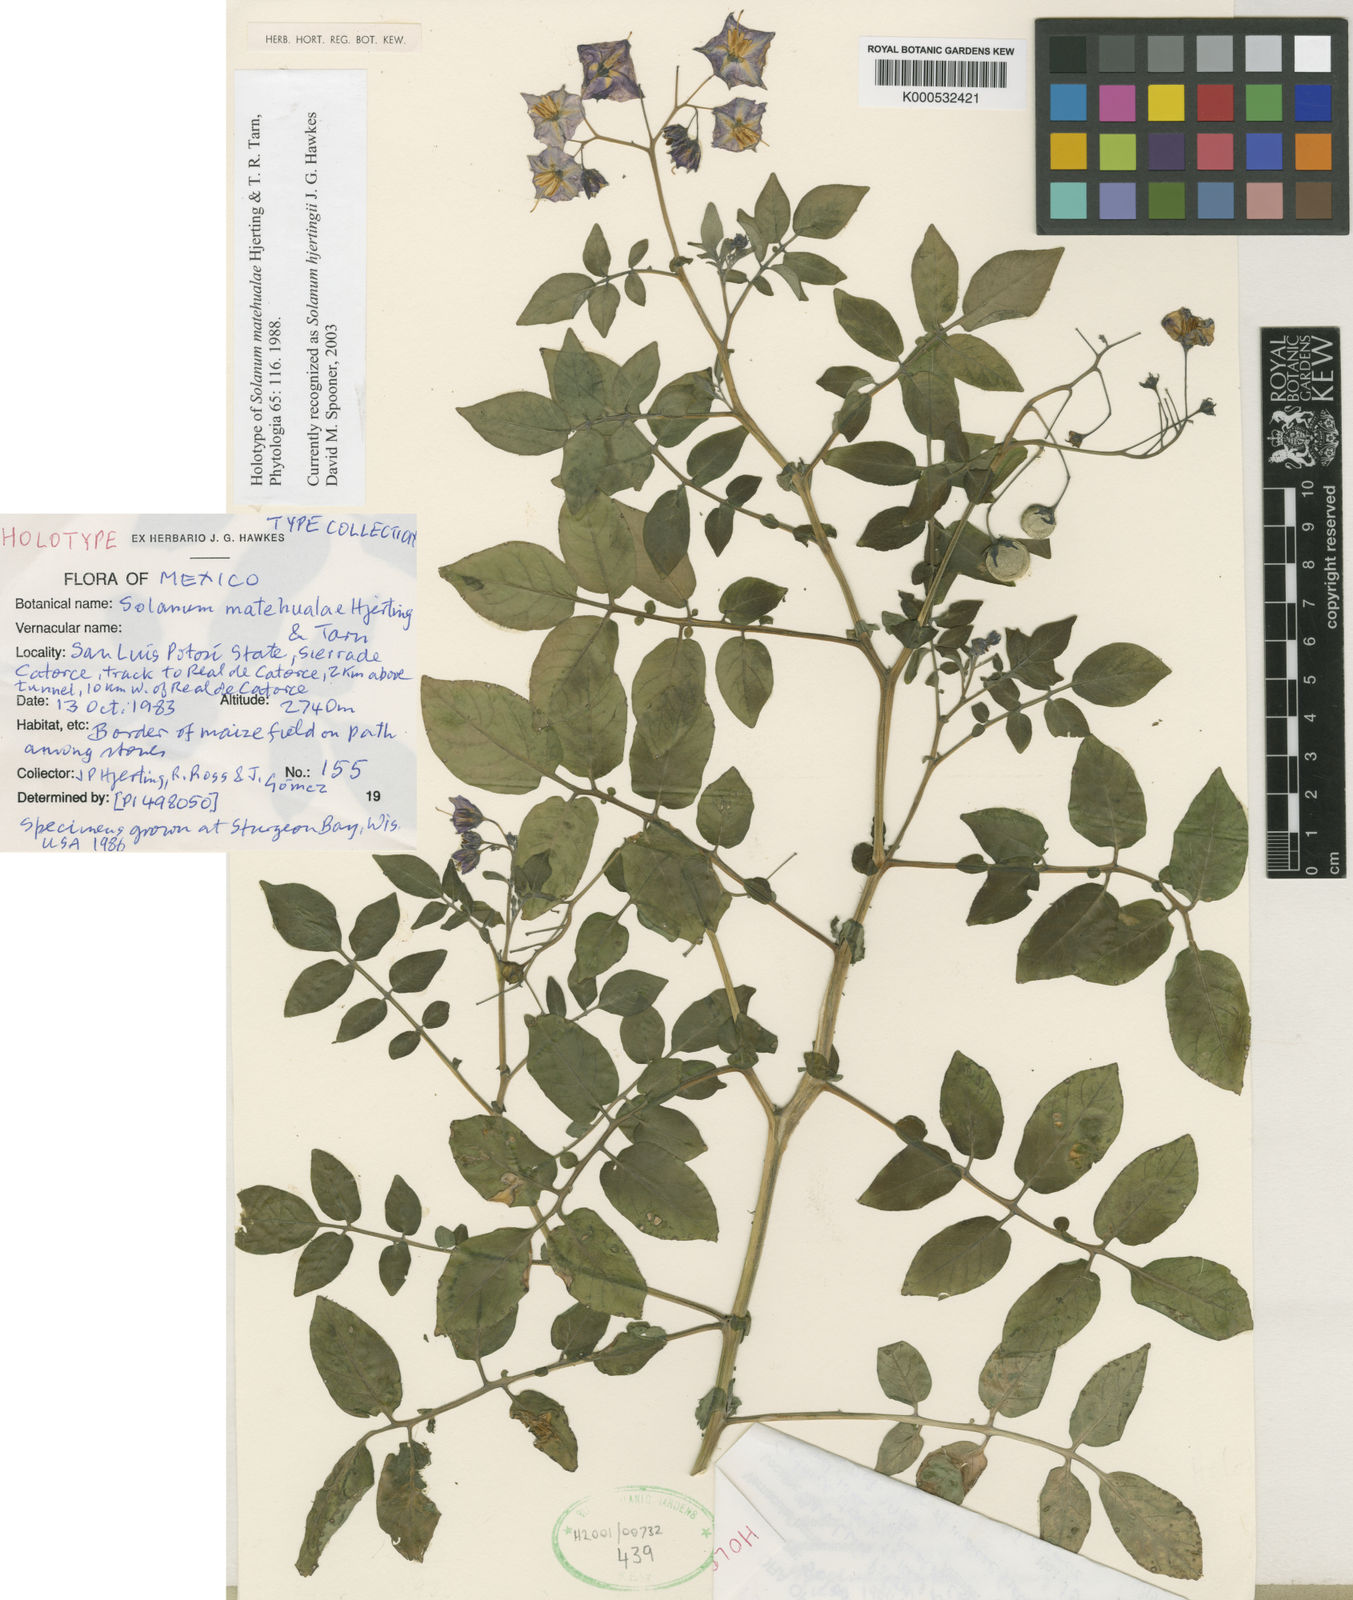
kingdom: Plantae
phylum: Tracheophyta
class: Magnoliopsida
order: Solanales
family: Solanaceae
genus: Solanum
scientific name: Solanum hjertingii
